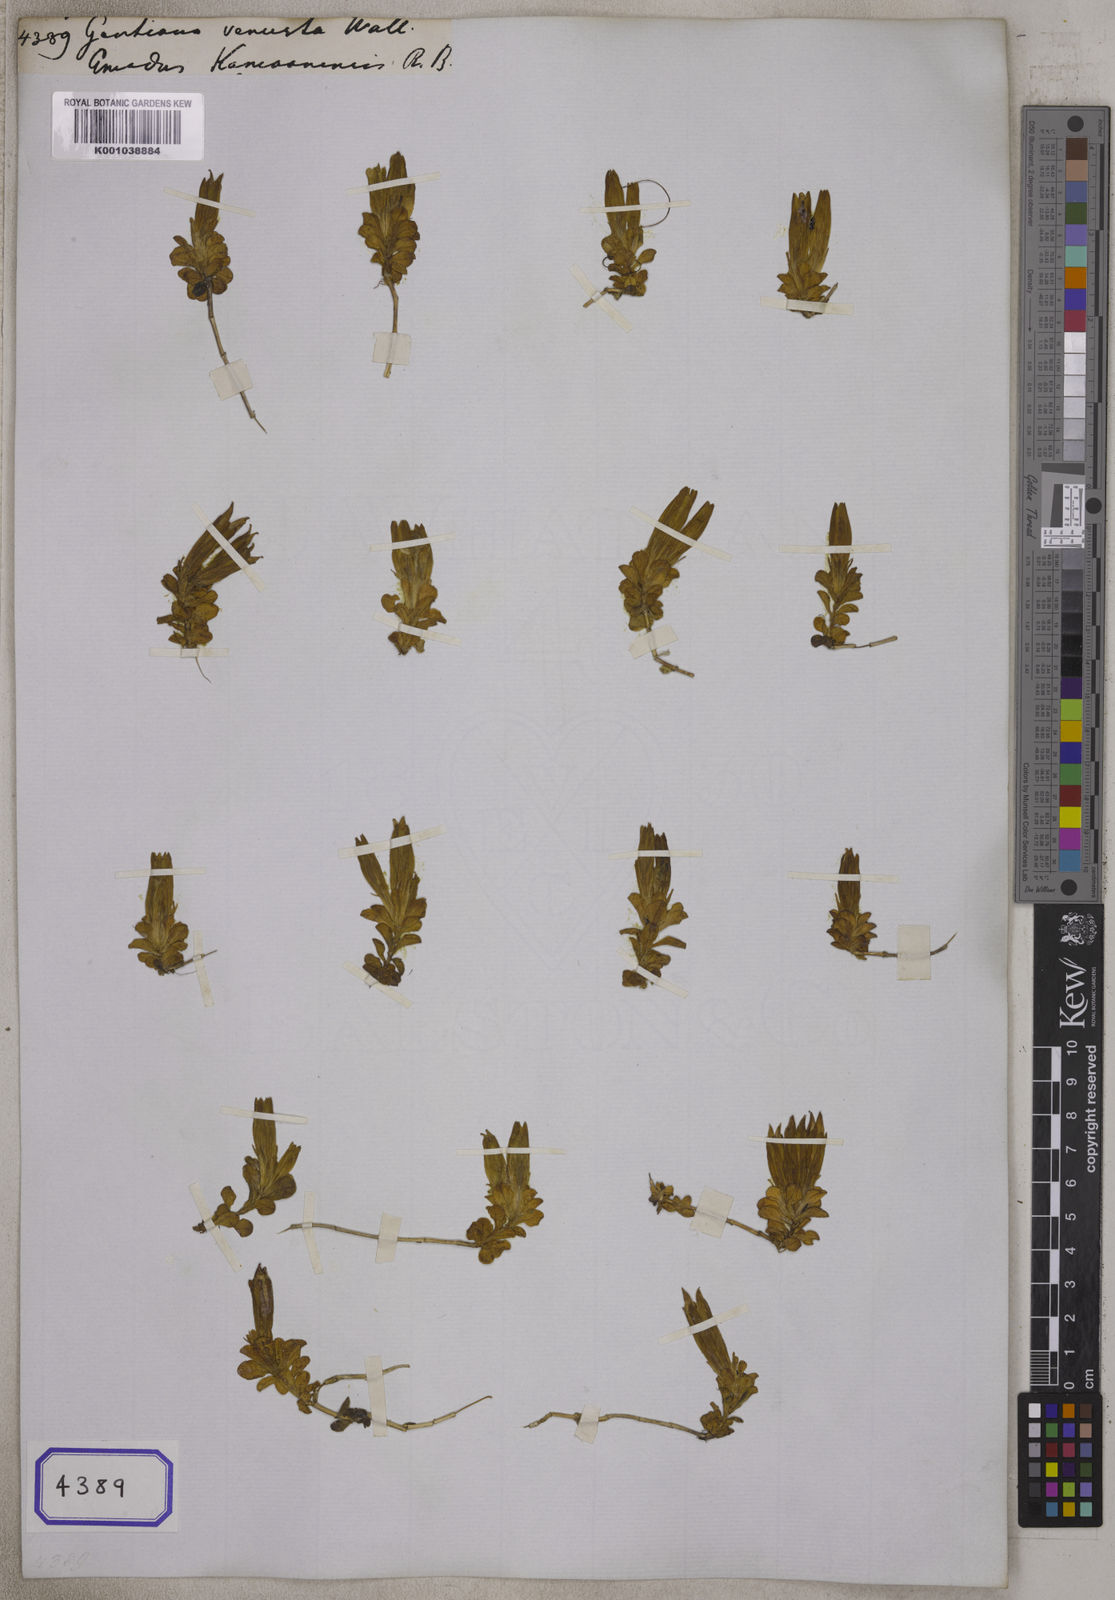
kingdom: Plantae
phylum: Tracheophyta
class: Magnoliopsida
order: Gentianales
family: Gentianaceae
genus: Gentiana
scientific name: Gentiana
